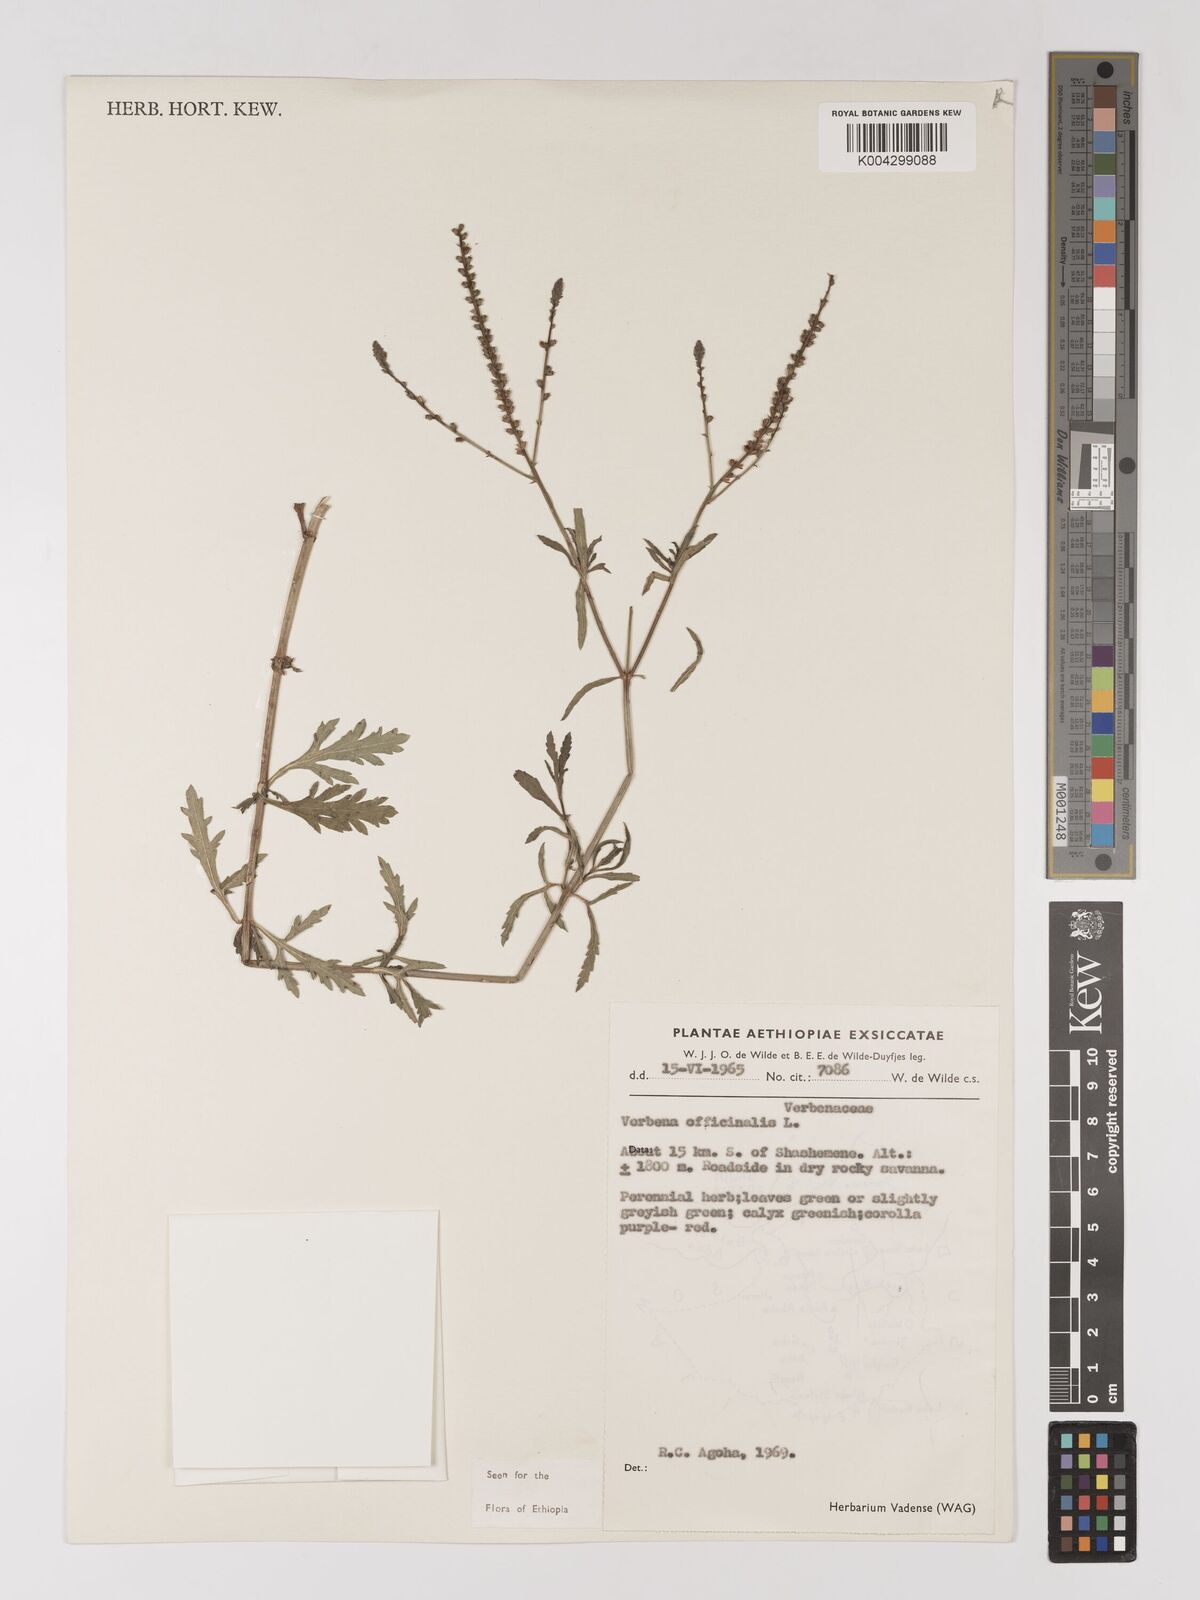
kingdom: Plantae
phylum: Tracheophyta
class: Magnoliopsida
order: Lamiales
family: Verbenaceae
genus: Verbena
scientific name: Verbena officinalis
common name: Vervain
